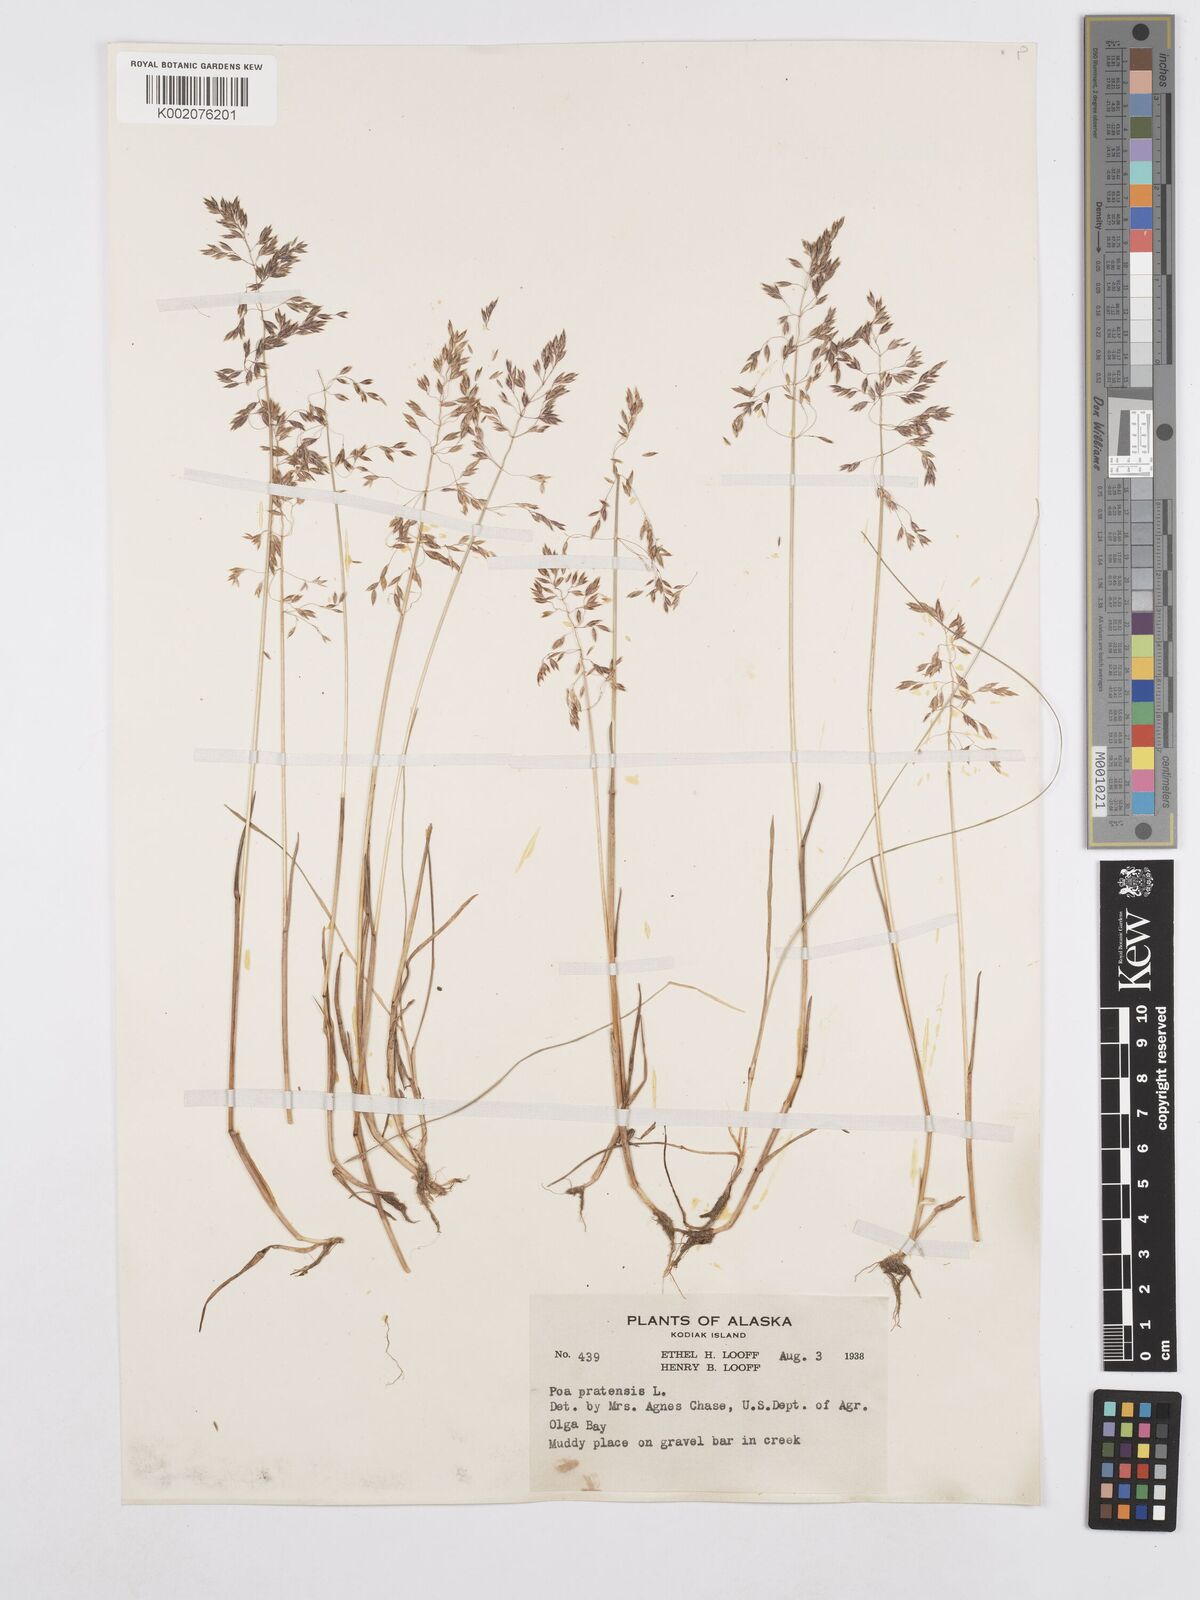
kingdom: Plantae
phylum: Tracheophyta
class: Liliopsida
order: Poales
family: Poaceae
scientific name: Poaceae
